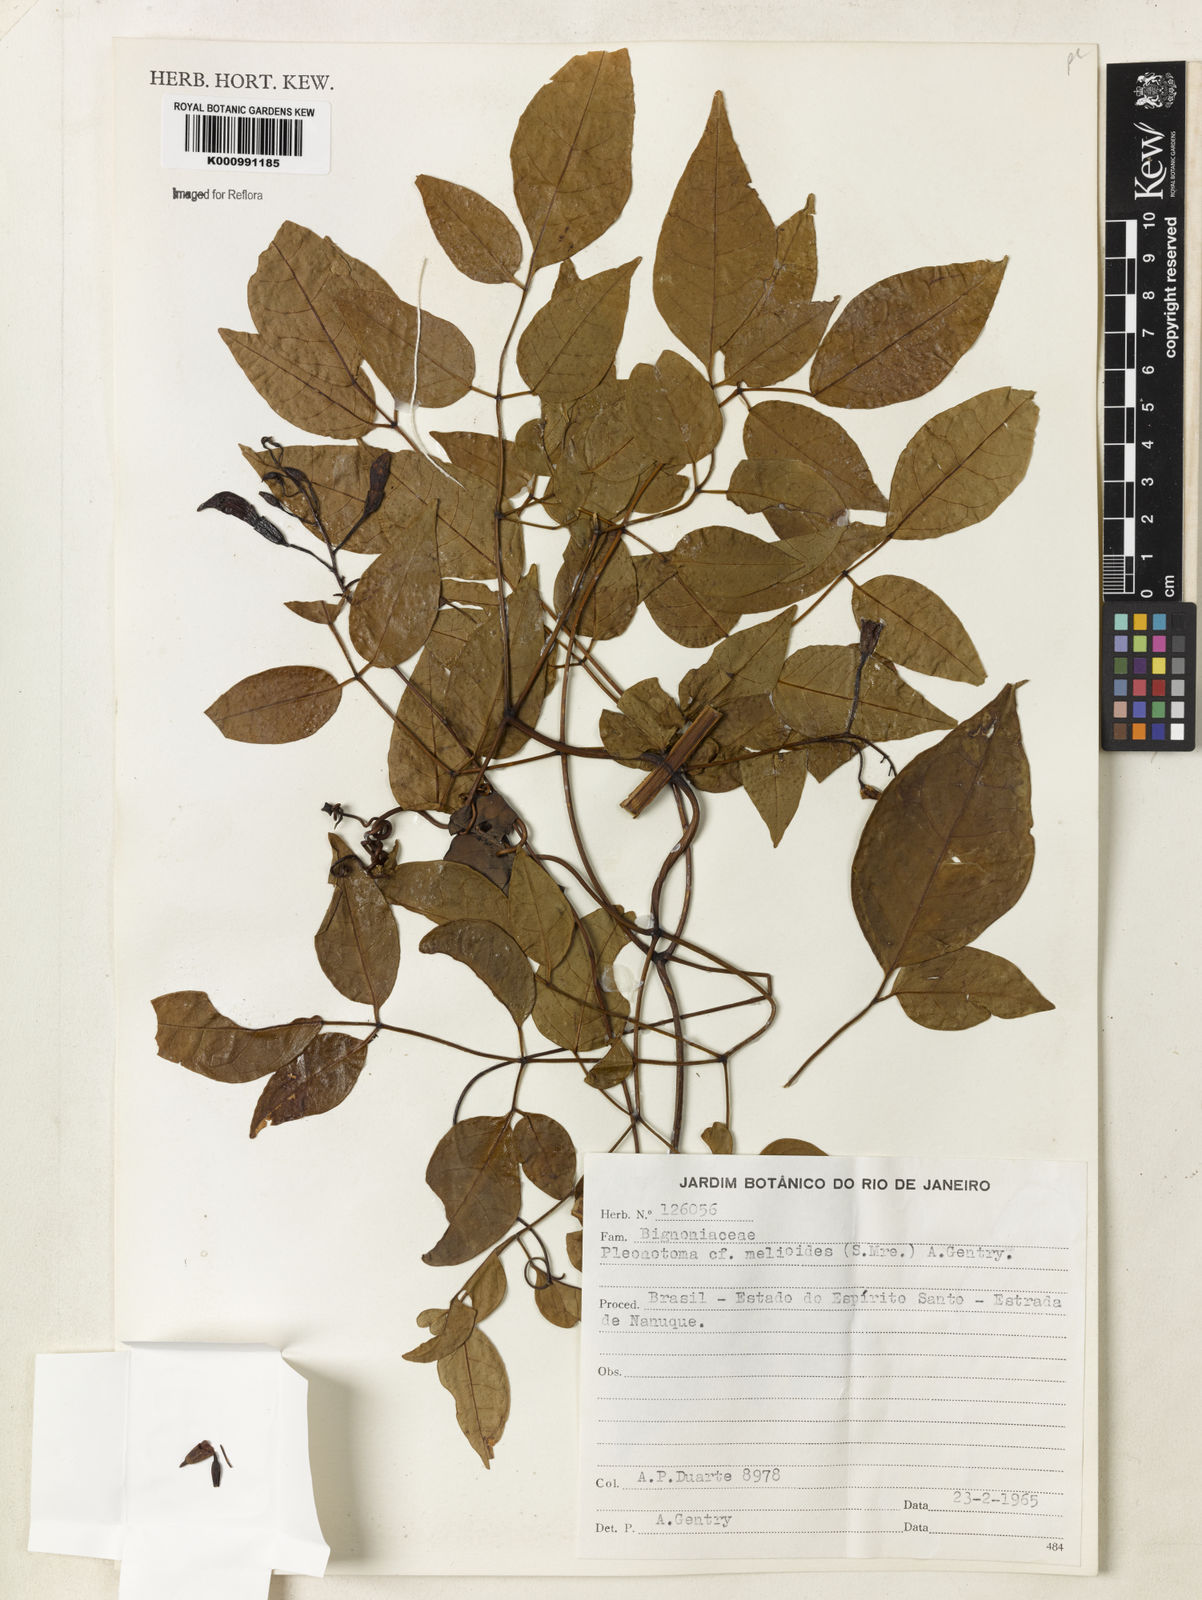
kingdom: Plantae
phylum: Tracheophyta
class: Magnoliopsida
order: Lamiales
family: Bignoniaceae
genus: Pleonotoma
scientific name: Pleonotoma melioides
